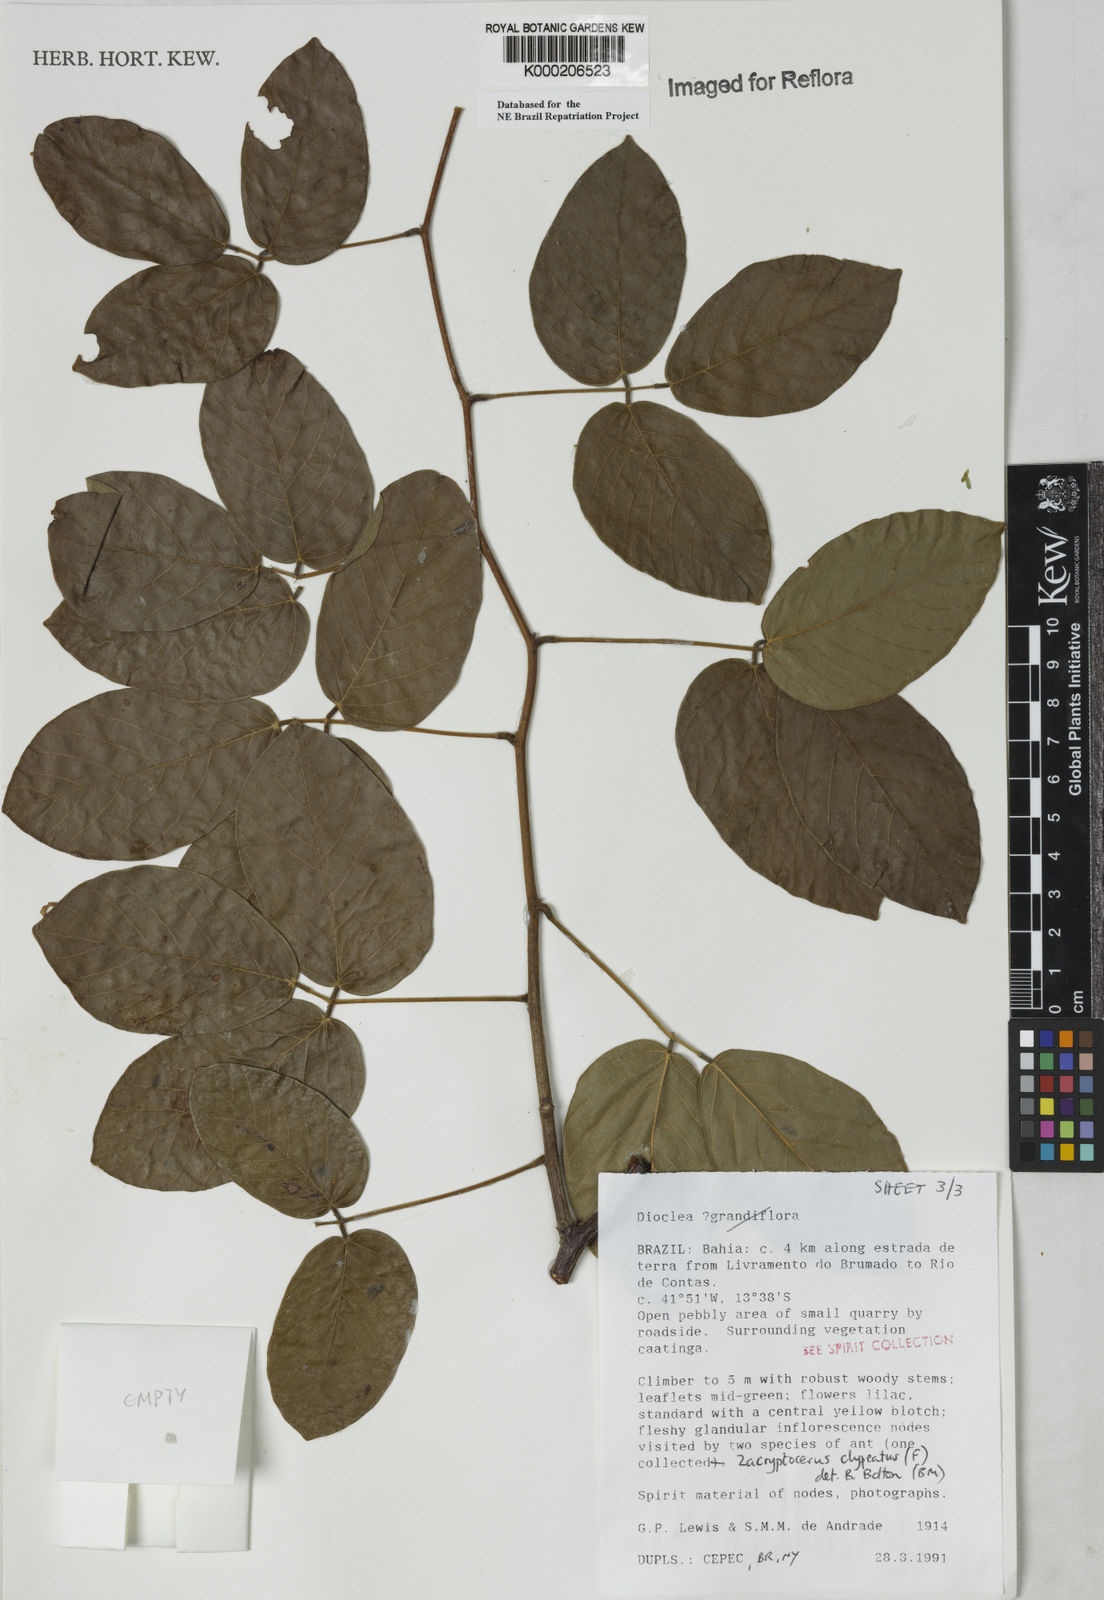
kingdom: Plantae
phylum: Tracheophyta
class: Magnoliopsida
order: Fabales
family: Fabaceae
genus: Dioclea
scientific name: Dioclea
